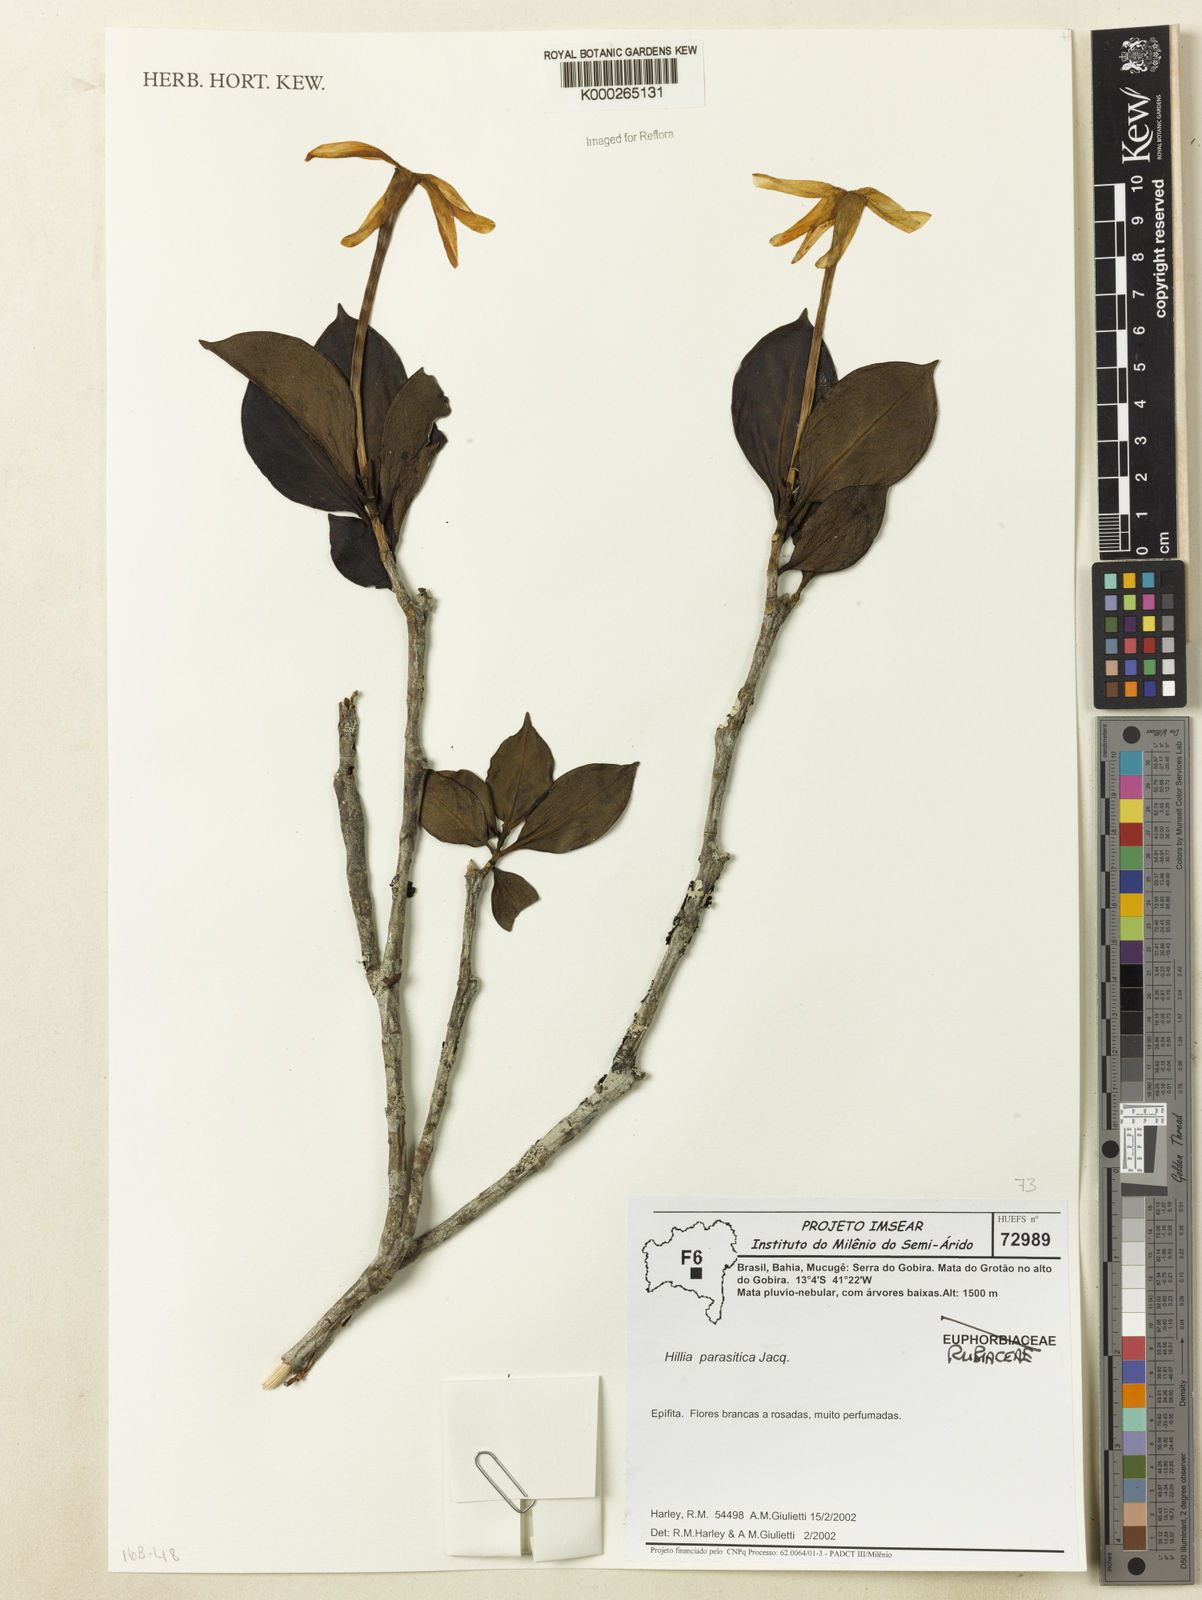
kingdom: Plantae
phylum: Tracheophyta
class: Magnoliopsida
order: Gentianales
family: Rubiaceae
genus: Hillia
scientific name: Hillia parasitica
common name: Morning star
